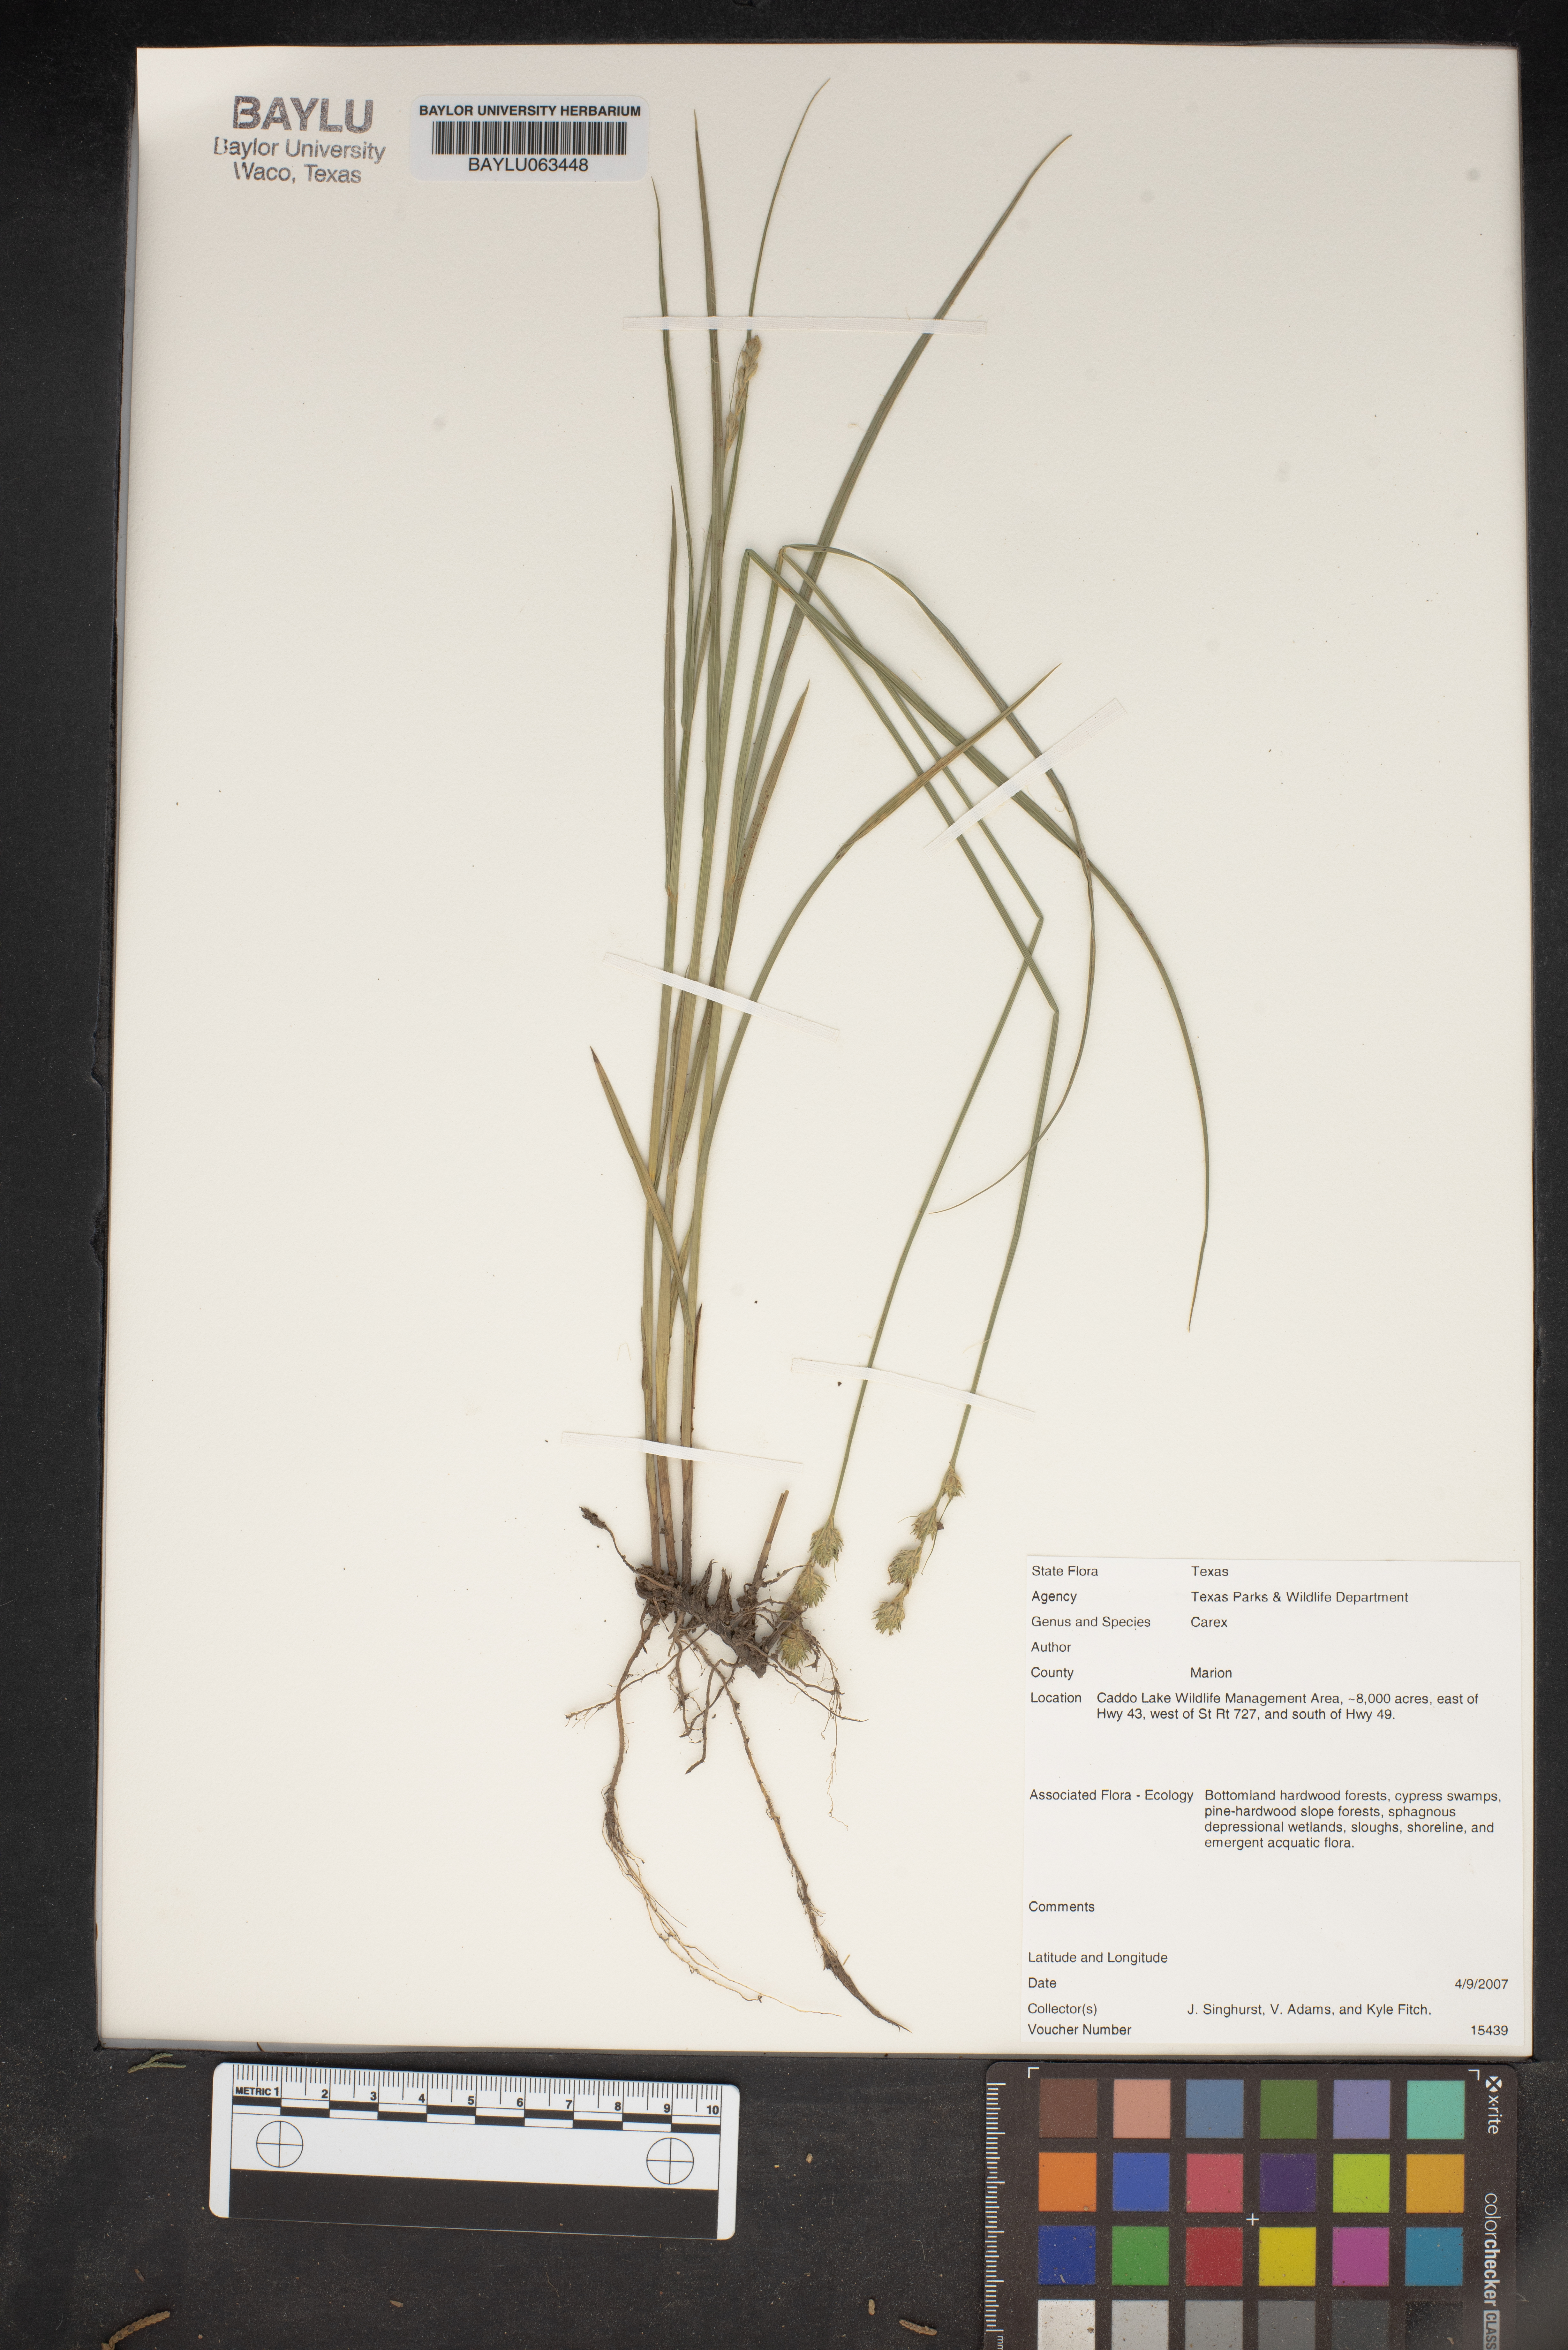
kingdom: Plantae
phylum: Tracheophyta
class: Liliopsida
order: Poales
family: Cyperaceae
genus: Carex
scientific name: Carex
